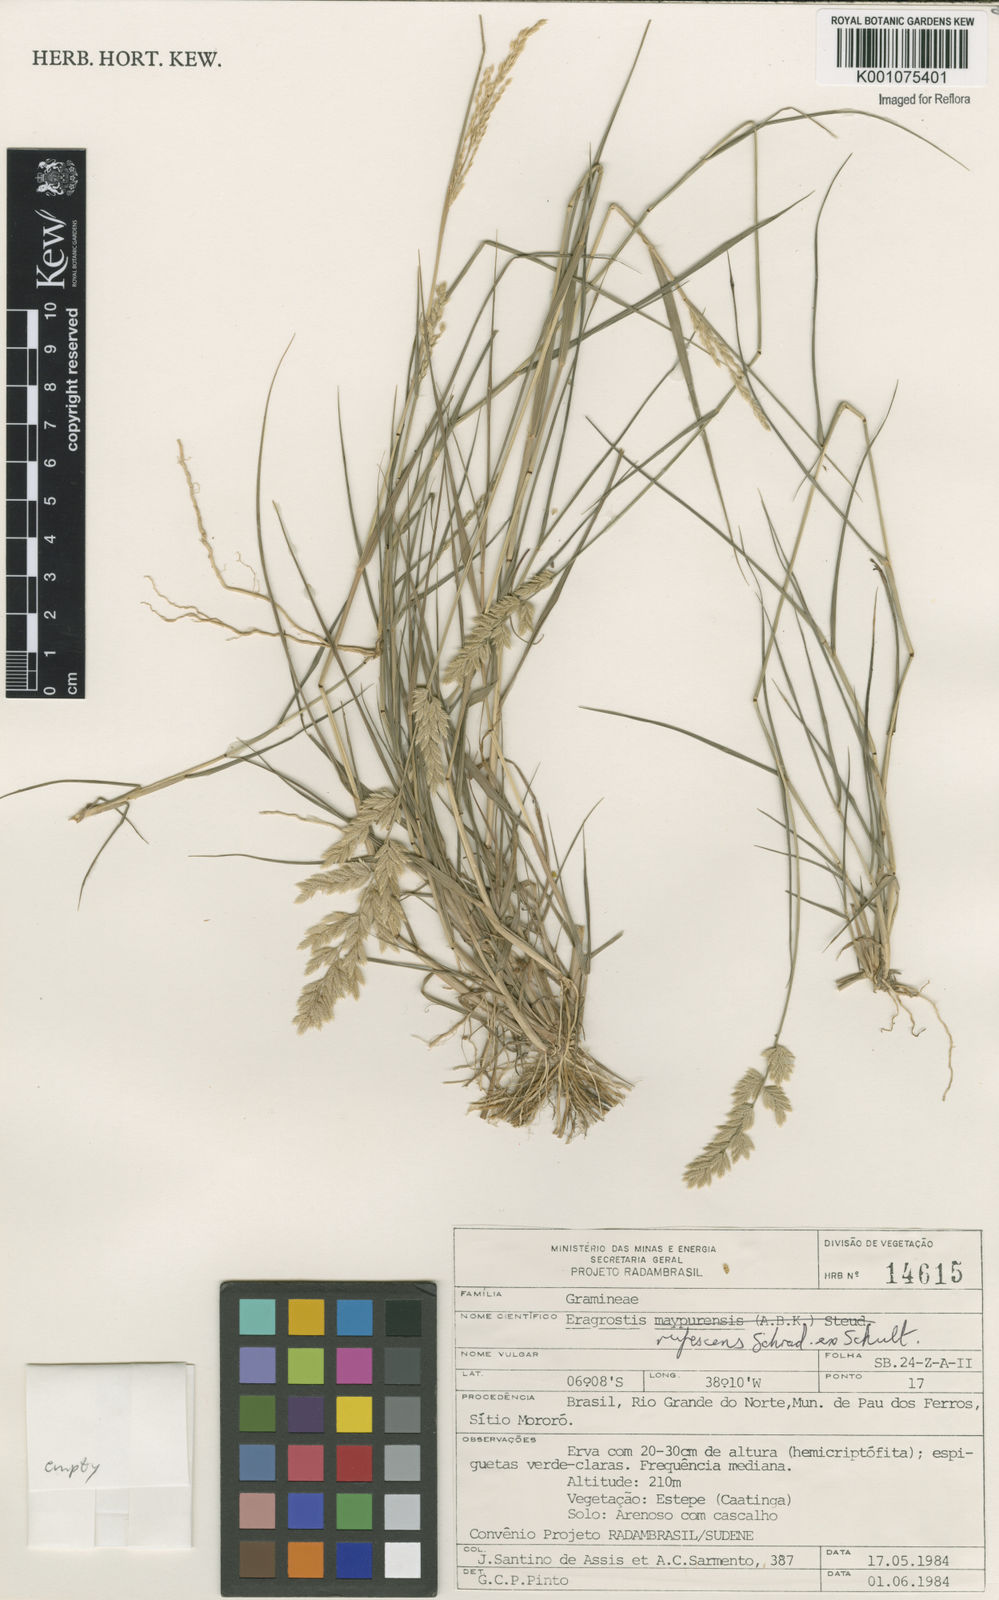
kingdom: Plantae
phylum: Tracheophyta
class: Liliopsida
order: Poales
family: Poaceae
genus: Eragrostis
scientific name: Eragrostis rufescens
